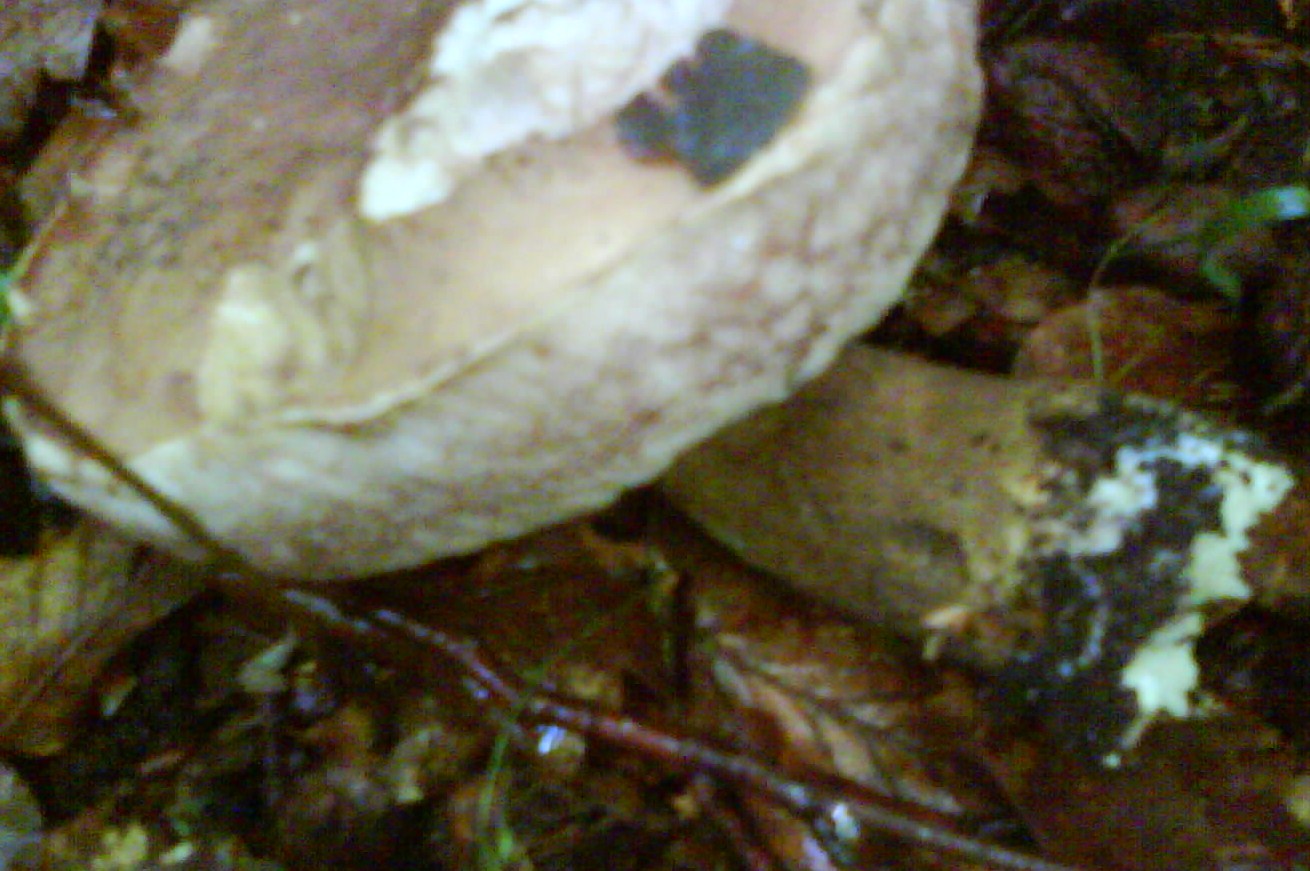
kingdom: Fungi
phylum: Basidiomycota
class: Agaricomycetes
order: Boletales
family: Boletaceae
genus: Tylopilus
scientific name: Tylopilus felleus
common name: galderørhat
